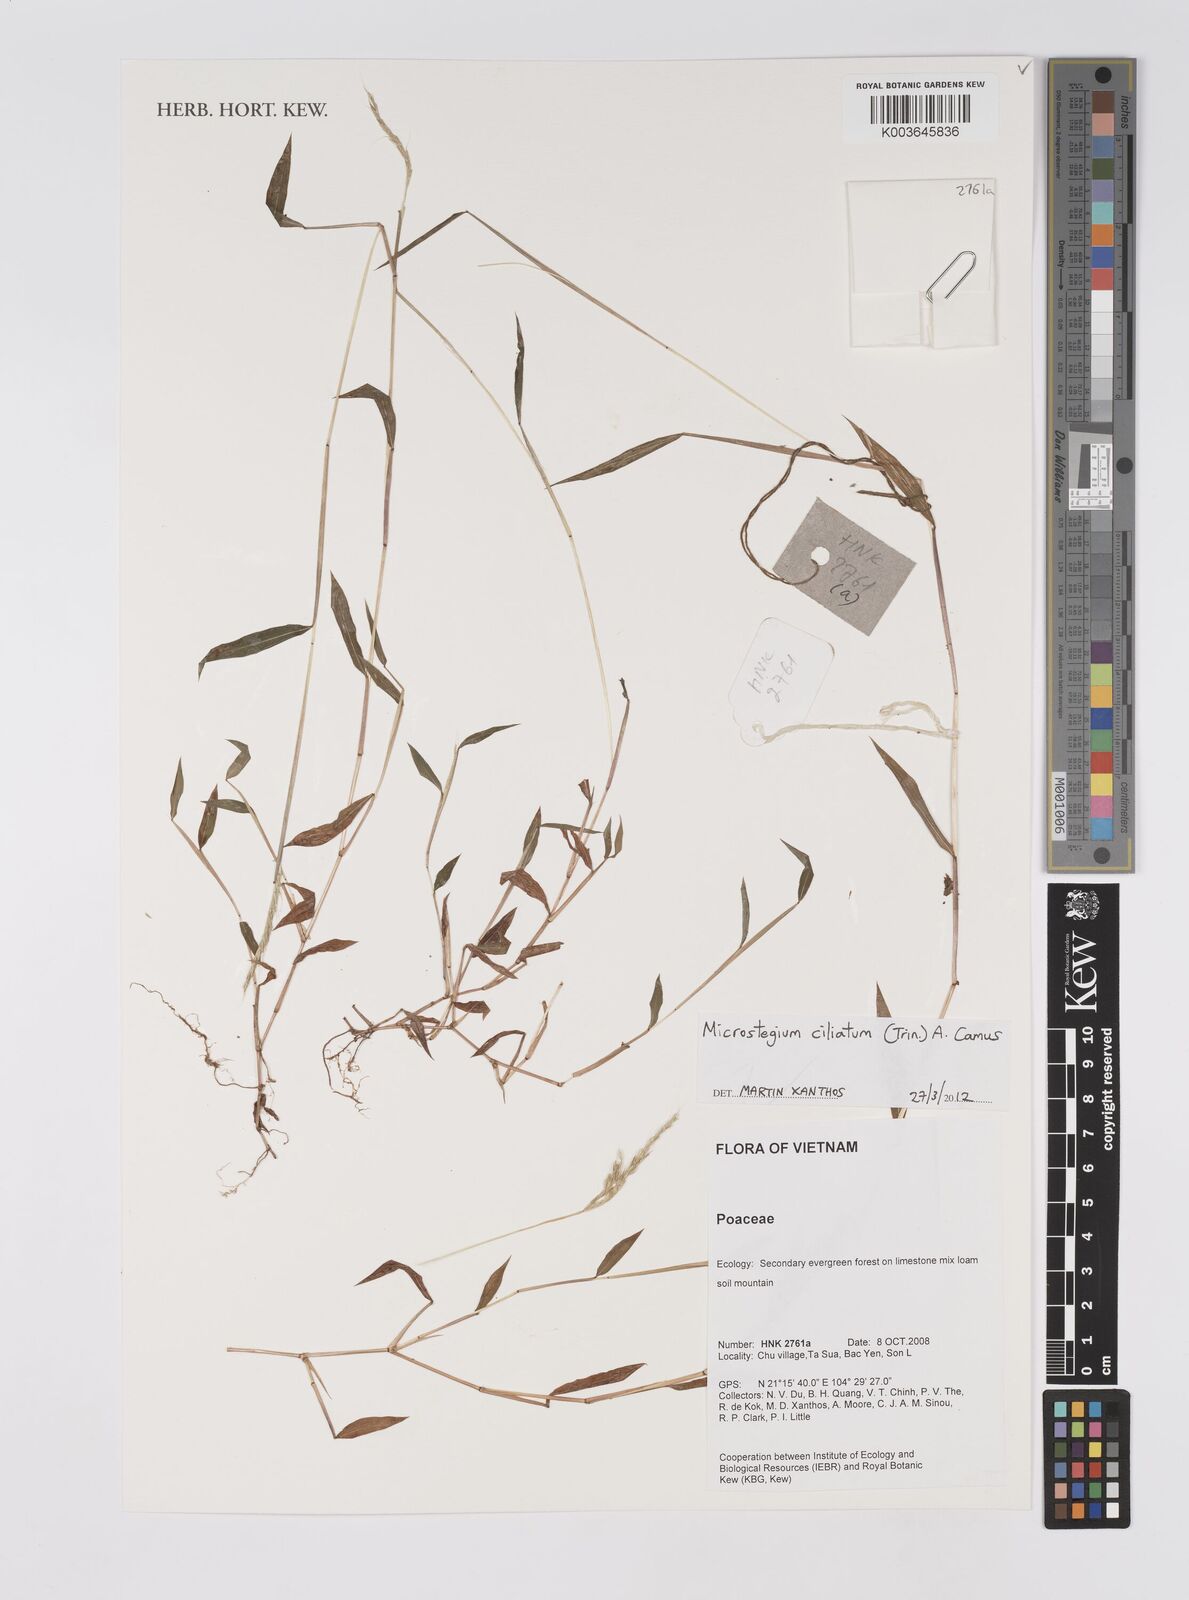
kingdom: Plantae
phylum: Tracheophyta
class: Liliopsida
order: Poales
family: Poaceae
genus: Microstegium
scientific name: Microstegium fasciculatum
